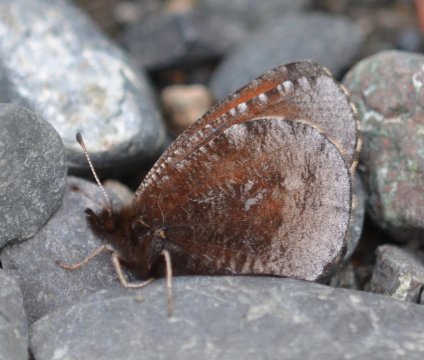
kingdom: Animalia
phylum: Arthropoda
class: Insecta
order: Lepidoptera
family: Nymphalidae
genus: Erebia
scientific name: Erebia discoidalis
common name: Red-disked Alpine
